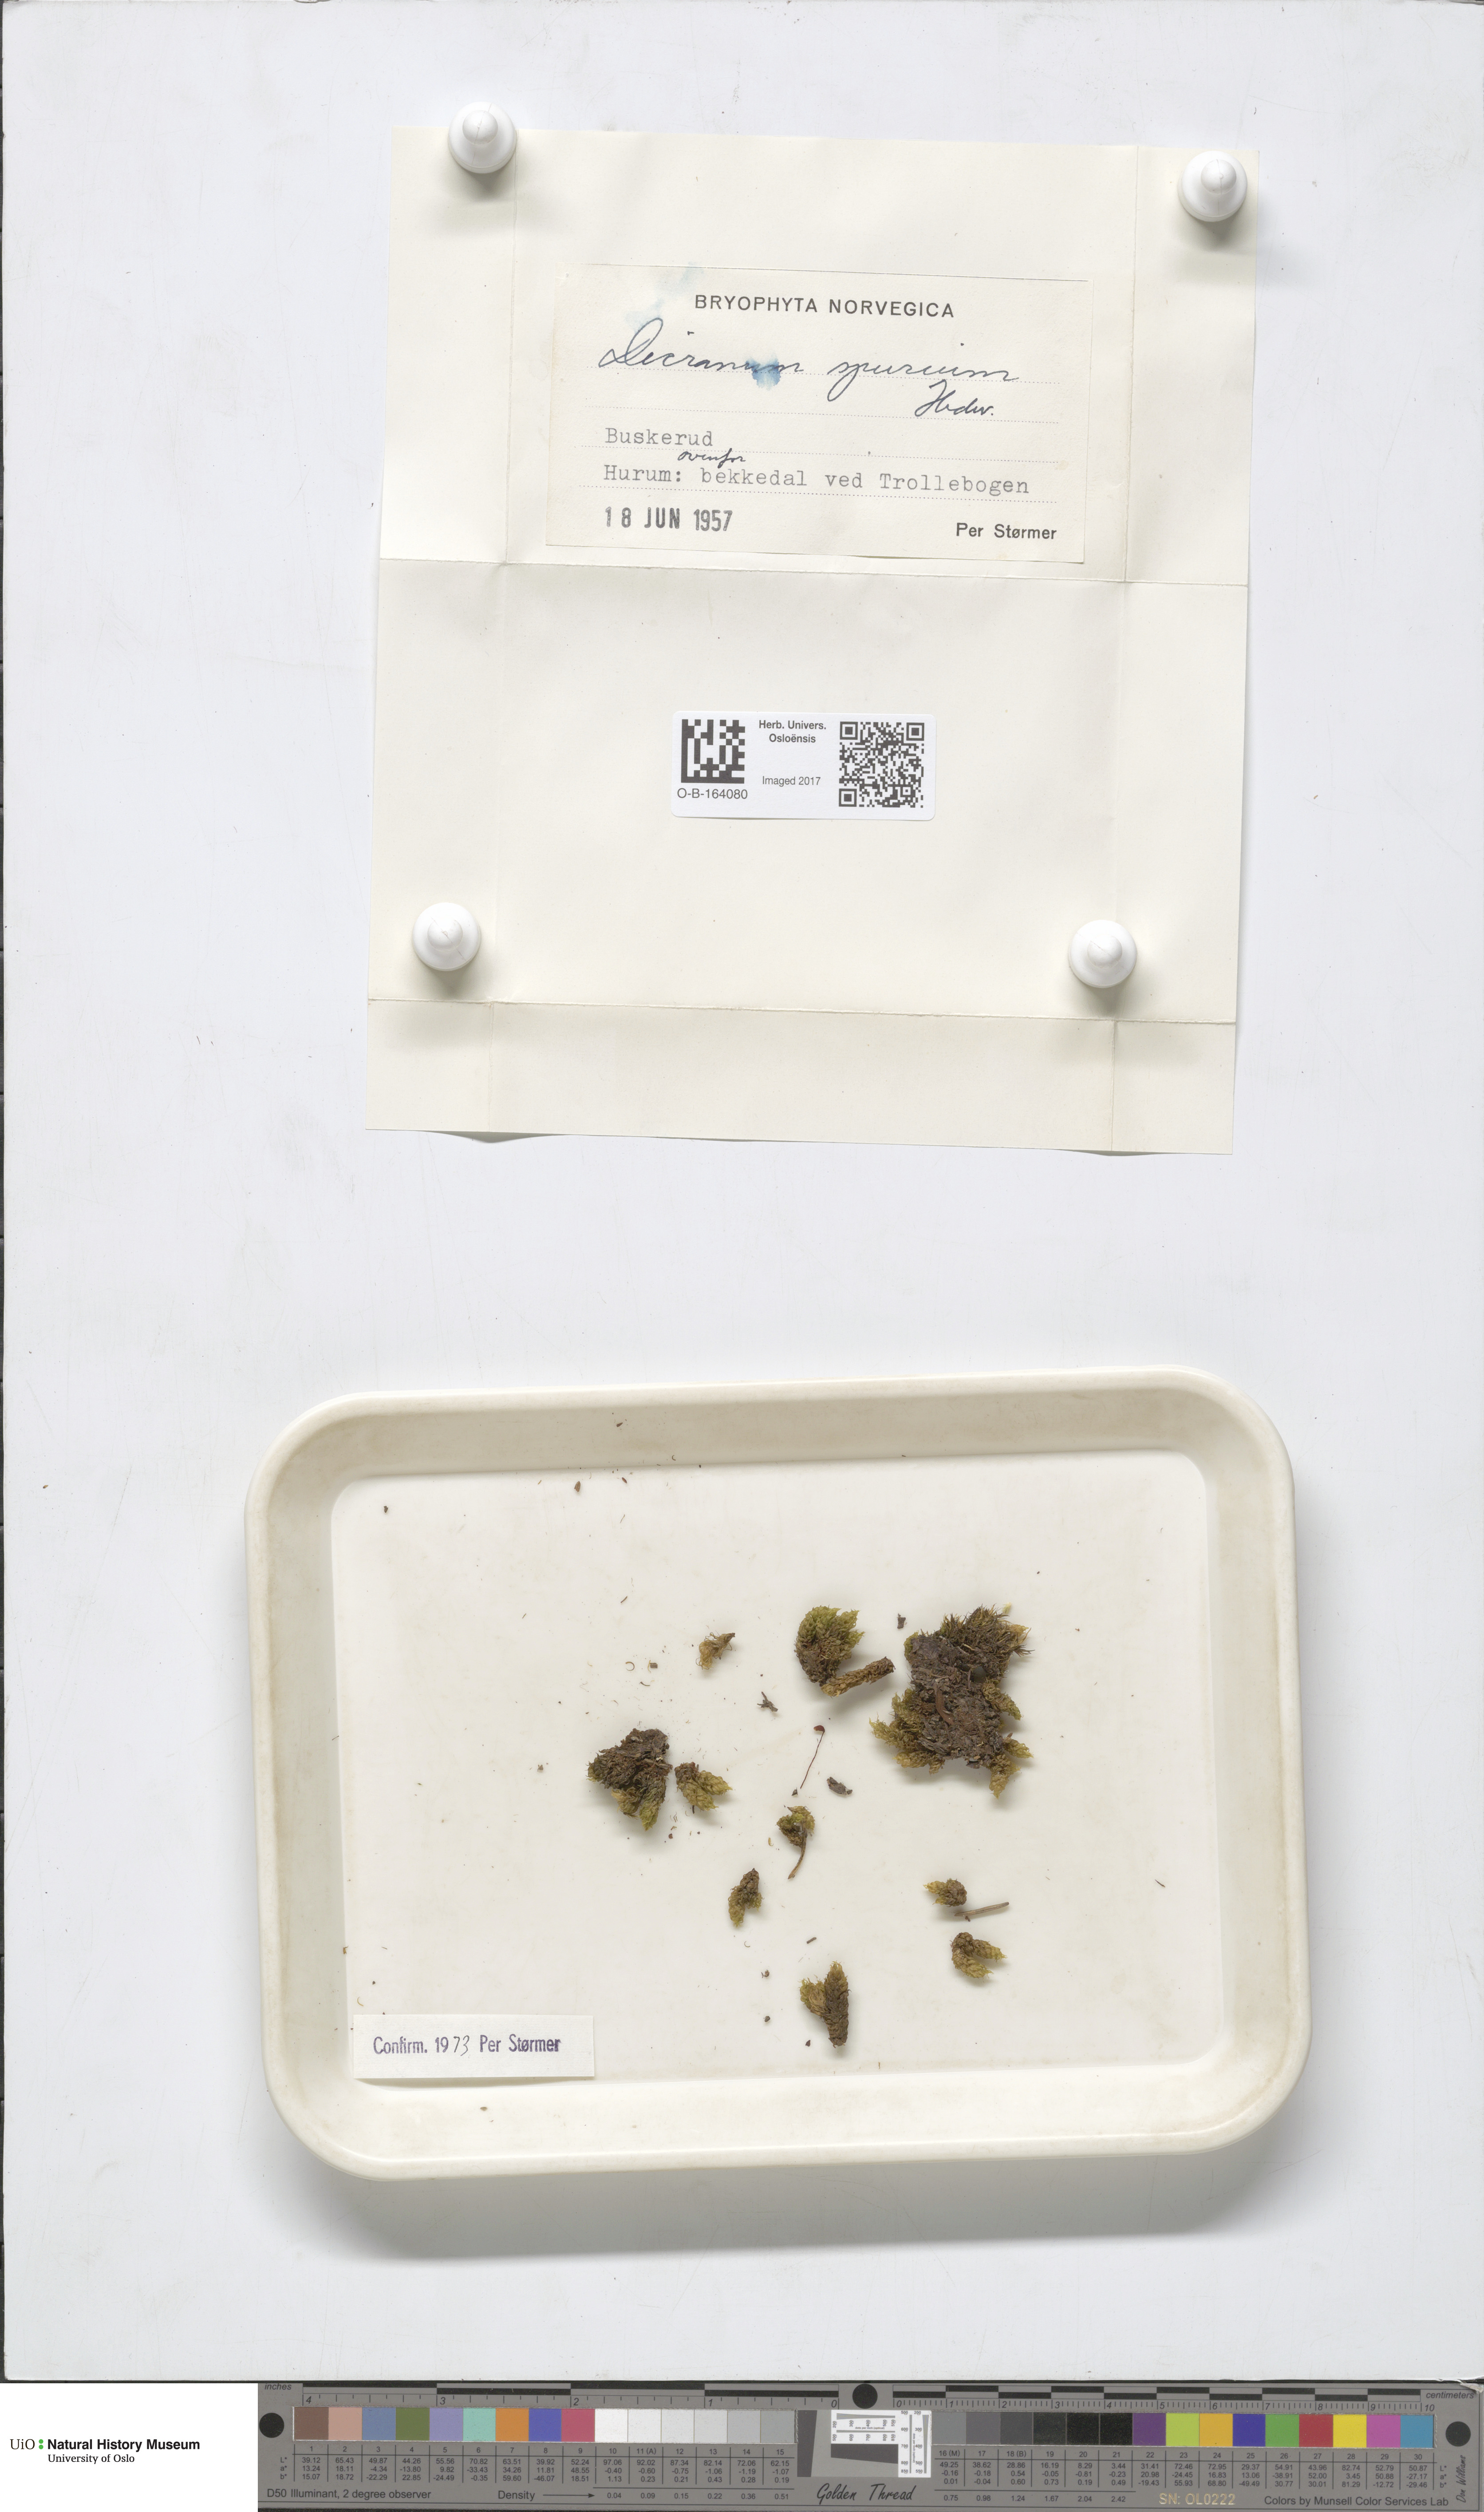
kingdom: Plantae
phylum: Bryophyta
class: Bryopsida
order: Dicranales
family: Dicranaceae
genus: Dicranum
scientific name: Dicranum spurium
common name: Spurred broom moss
